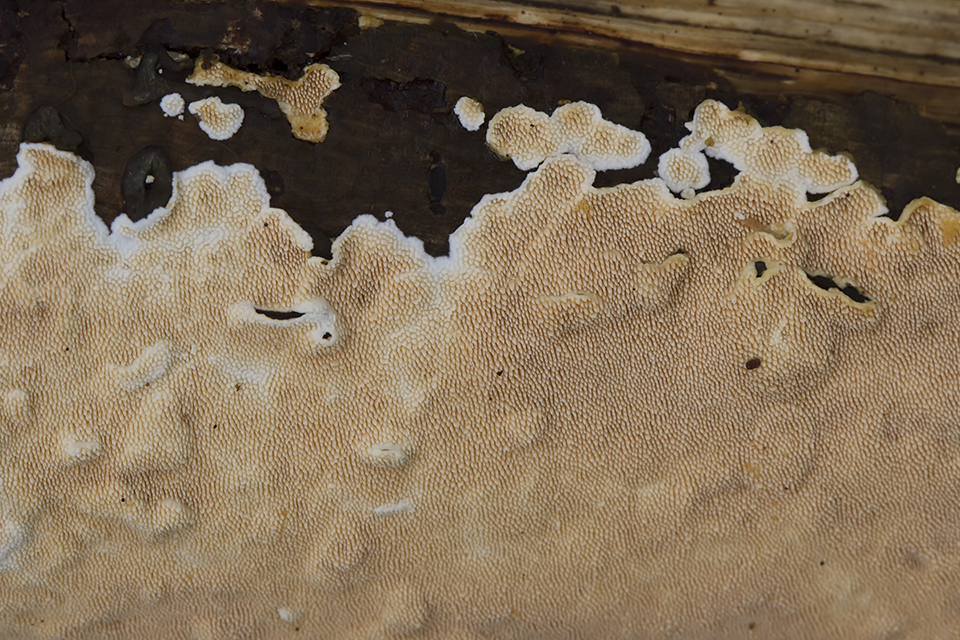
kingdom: Fungi
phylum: Basidiomycota
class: Agaricomycetes
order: Polyporales
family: Steccherinaceae
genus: Steccherinum
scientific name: Steccherinum ochraceum
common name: almindelig skønpig
